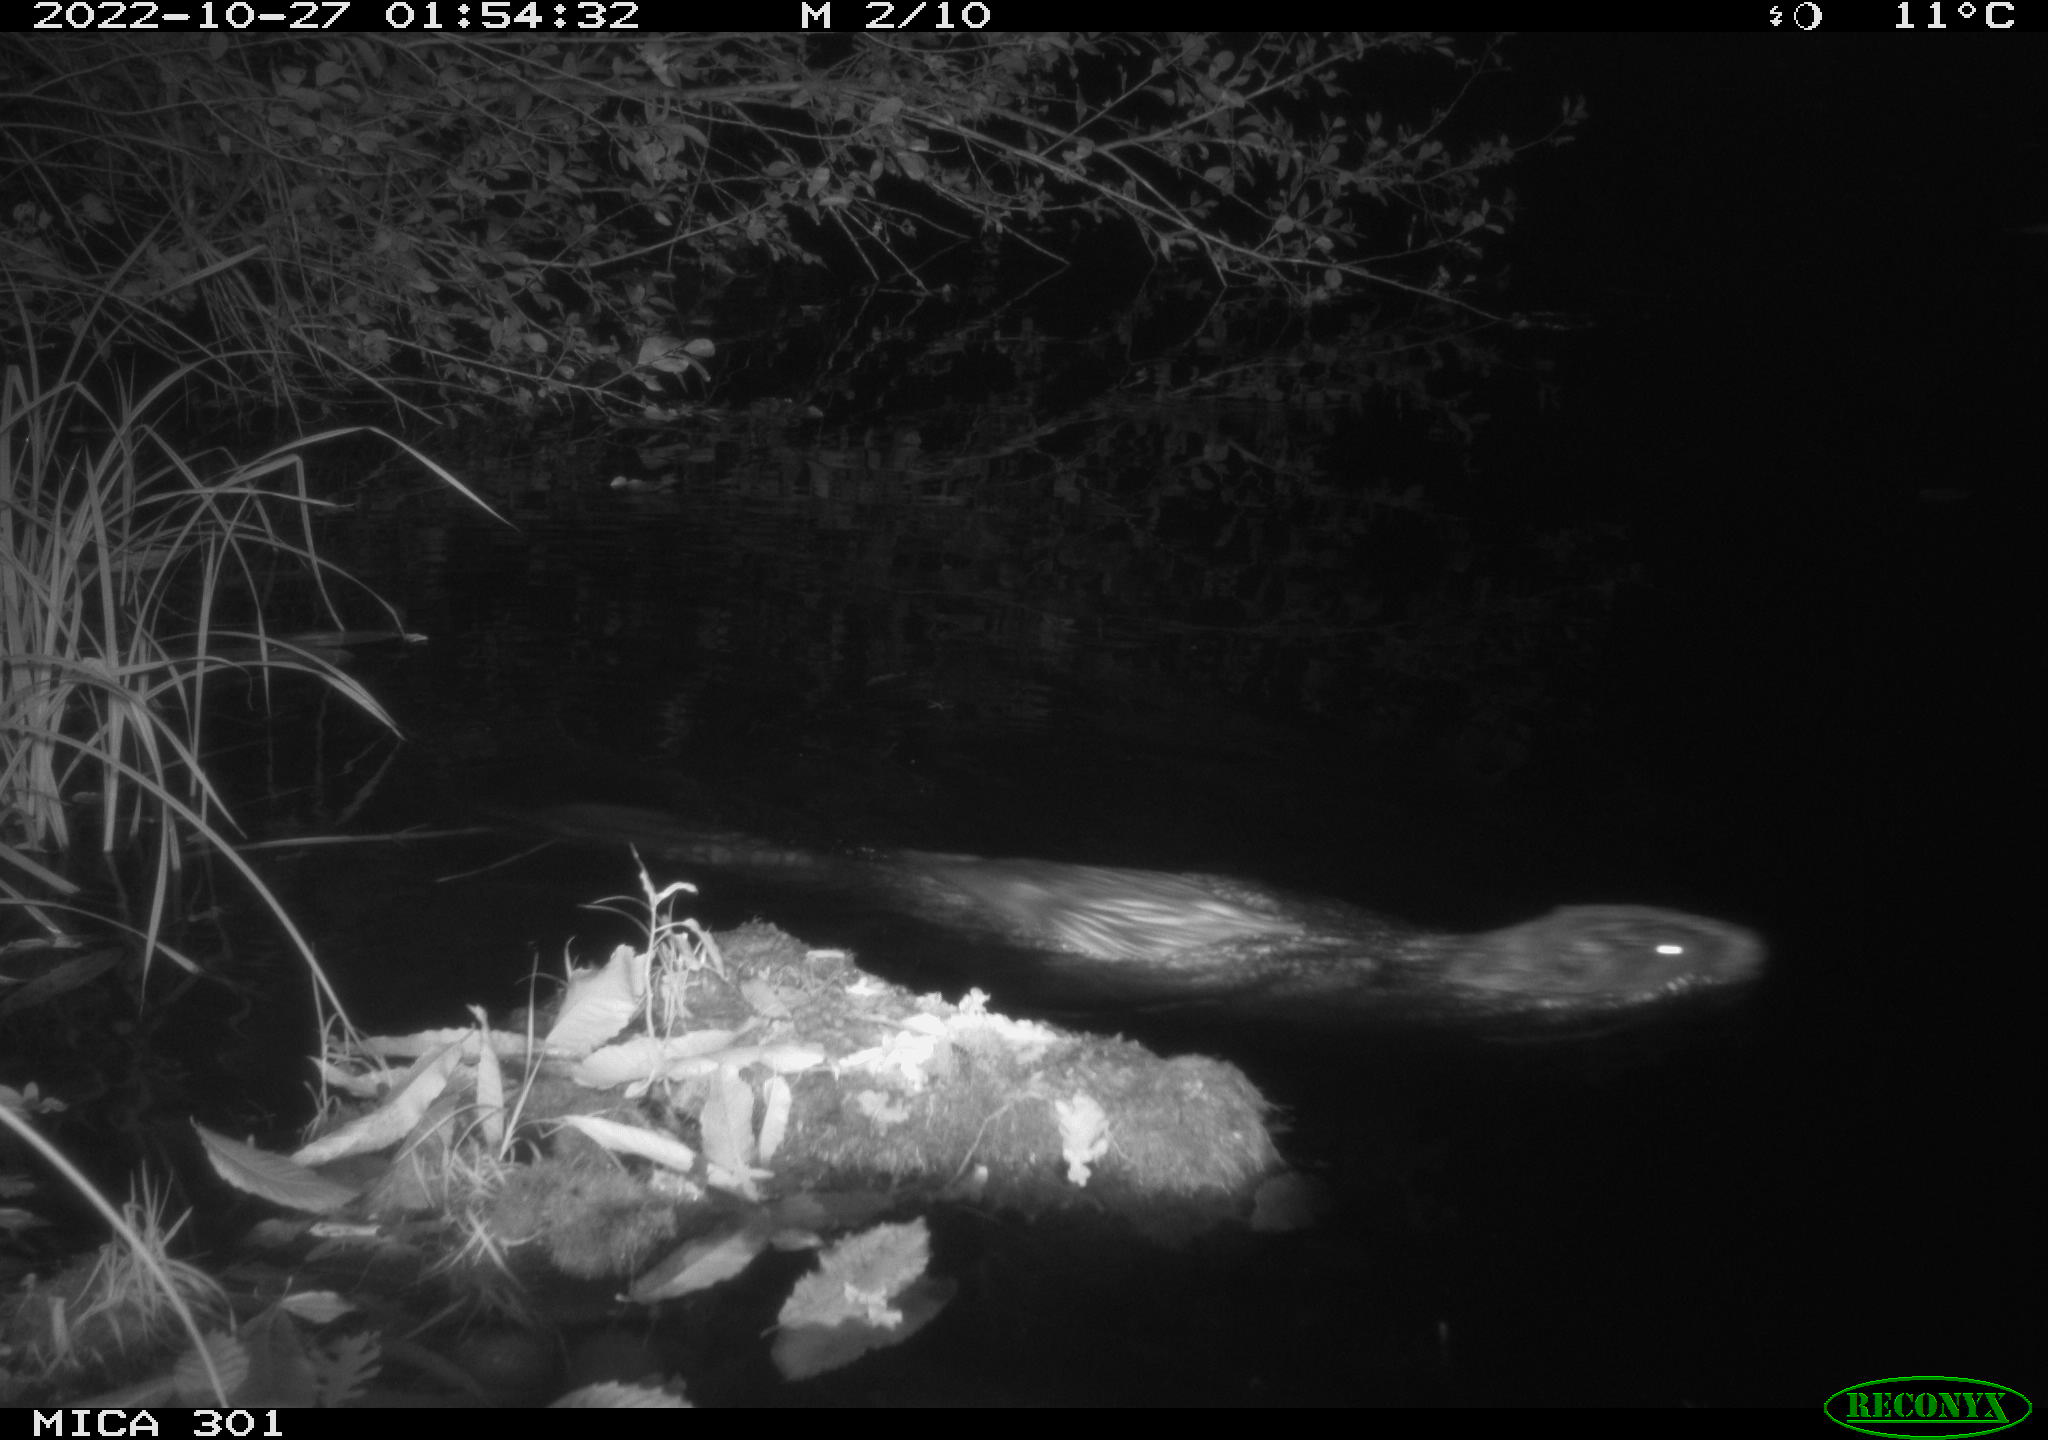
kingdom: Animalia
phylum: Chordata
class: Mammalia
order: Rodentia
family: Castoridae
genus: Castor
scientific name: Castor fiber
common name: Eurasian beaver
